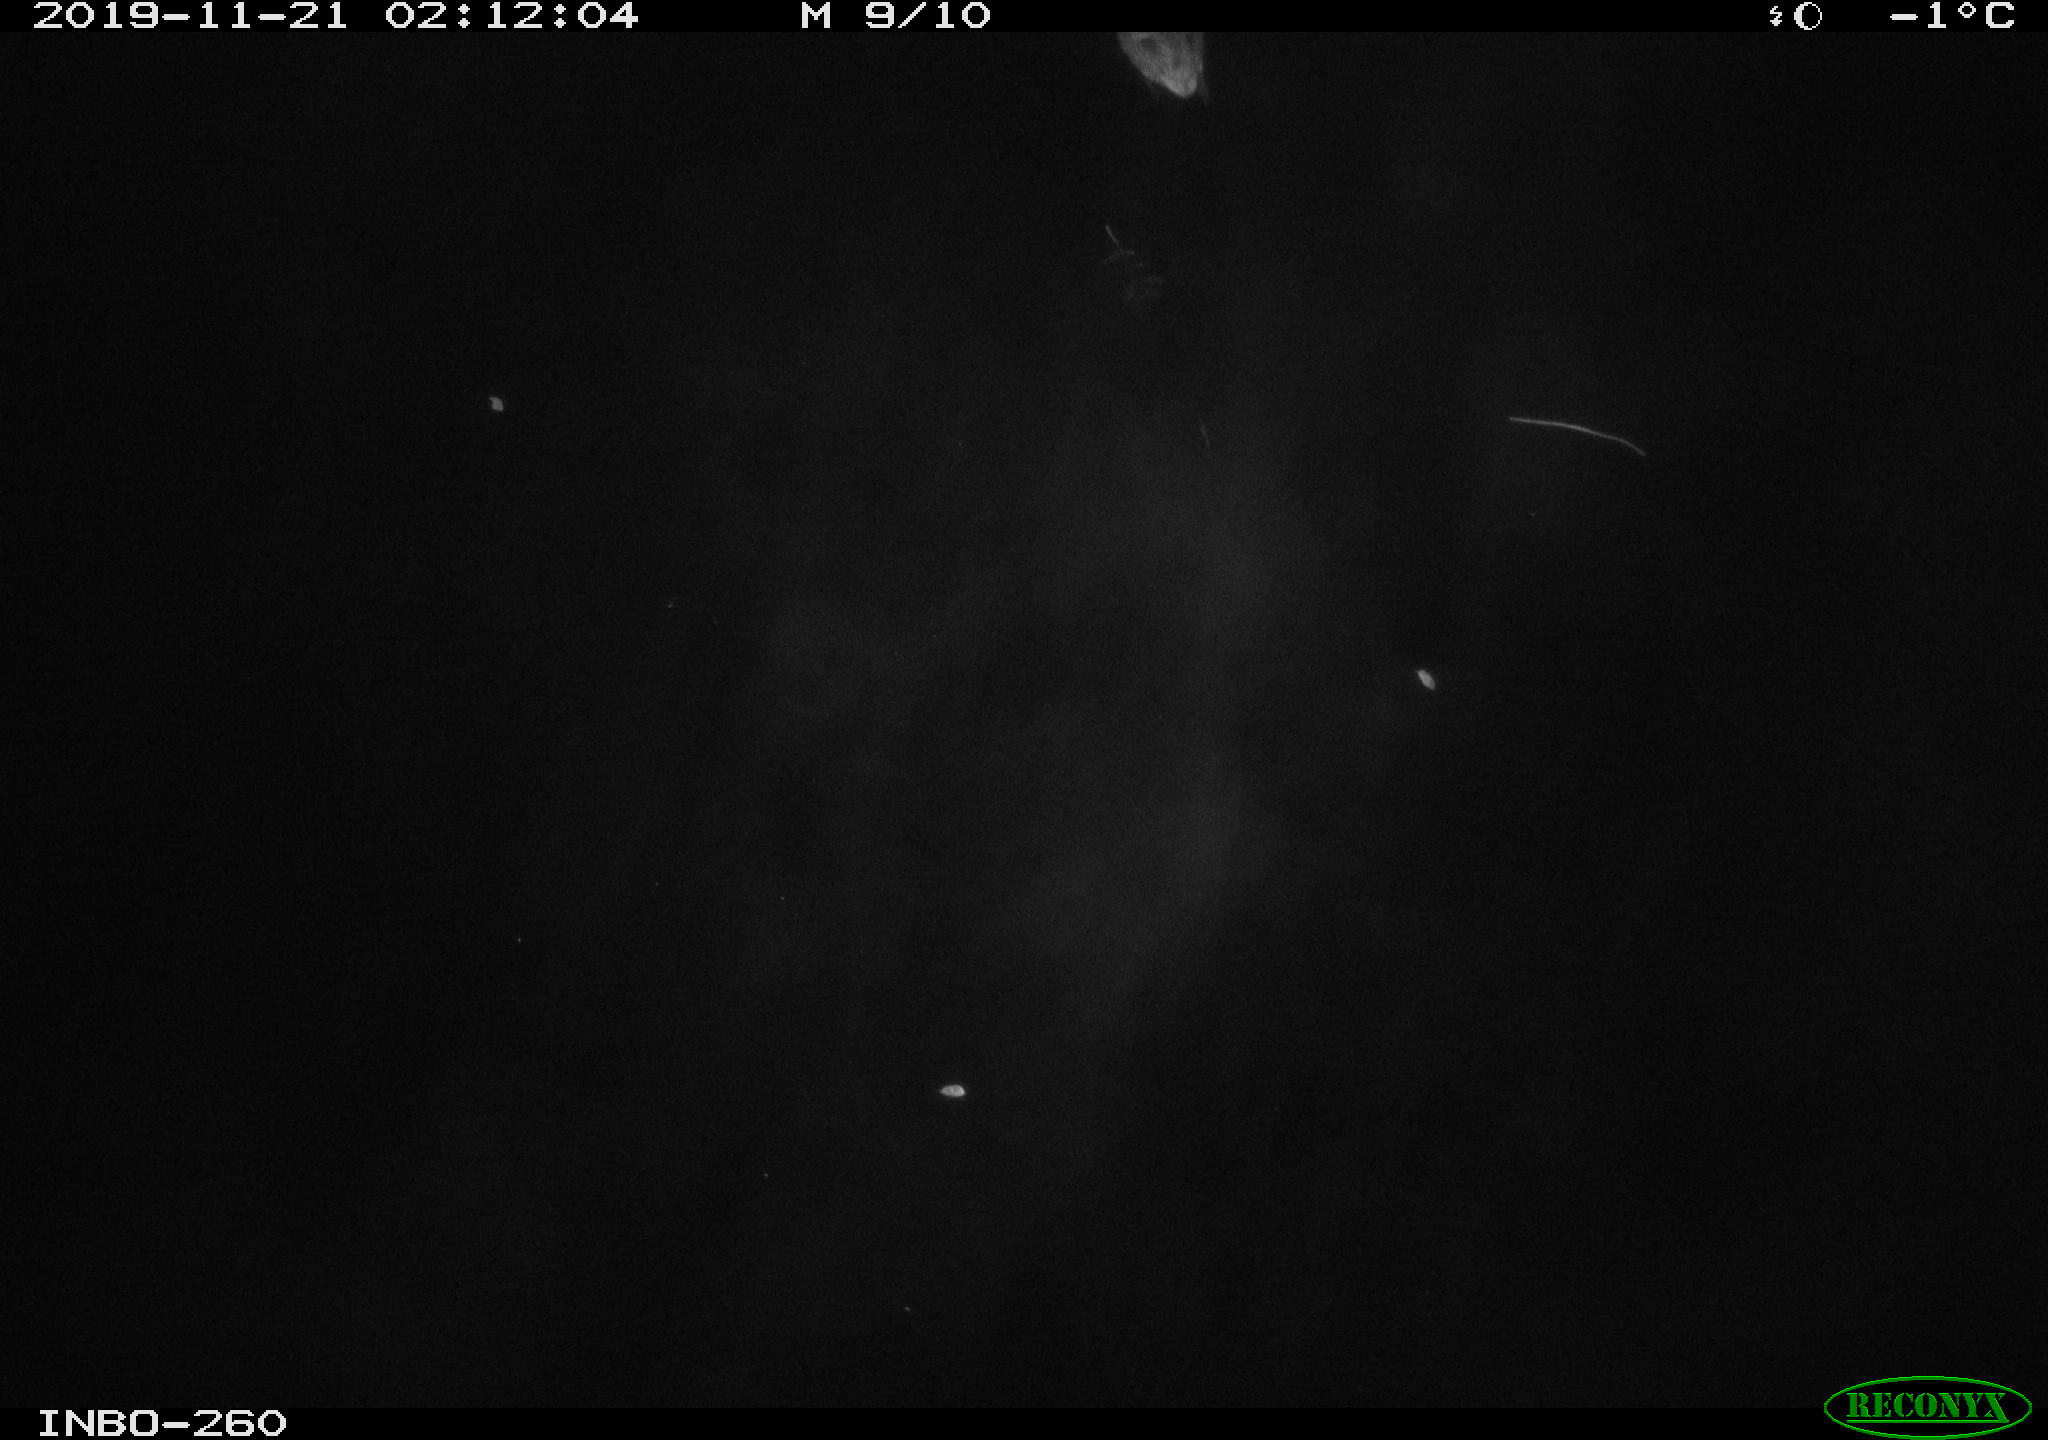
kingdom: Animalia
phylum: Chordata
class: Aves
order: Anseriformes
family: Anatidae
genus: Anas
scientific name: Anas platyrhynchos
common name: Mallard
